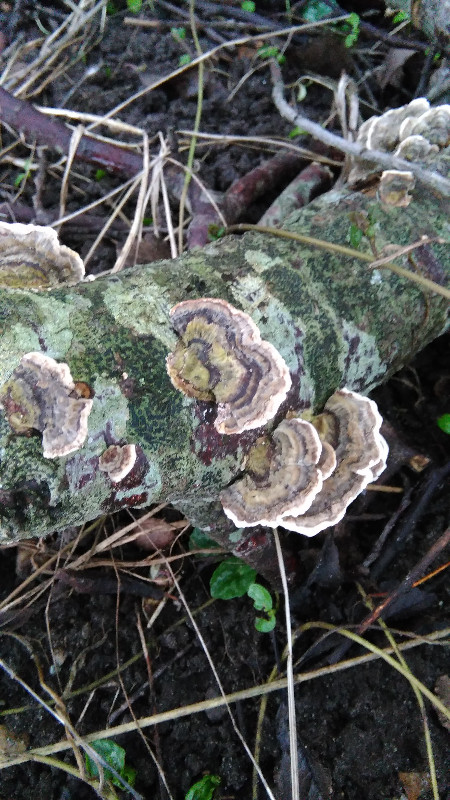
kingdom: Fungi
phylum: Basidiomycota
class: Agaricomycetes
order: Polyporales
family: Polyporaceae
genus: Trametes
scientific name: Trametes versicolor
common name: broget læderporesvamp
